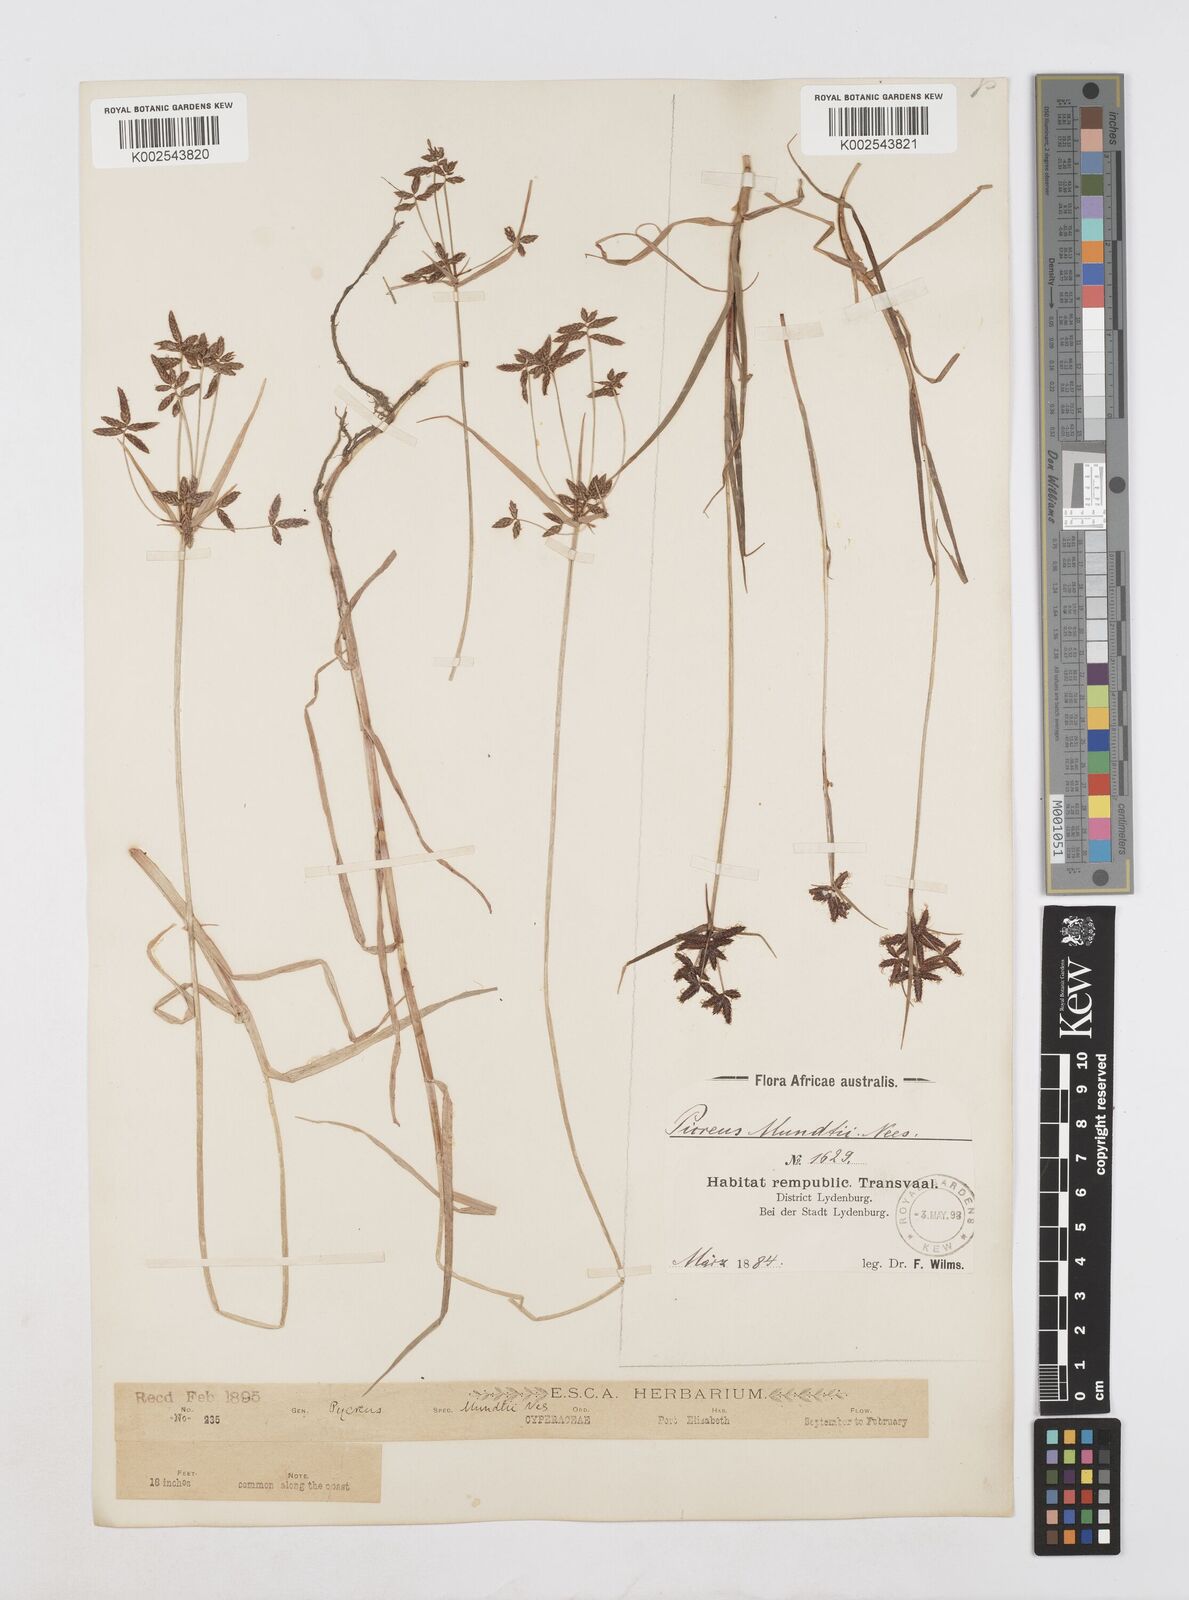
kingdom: Plantae
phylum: Tracheophyta
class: Liliopsida
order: Poales
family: Cyperaceae
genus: Cyperus
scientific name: Cyperus mundii
